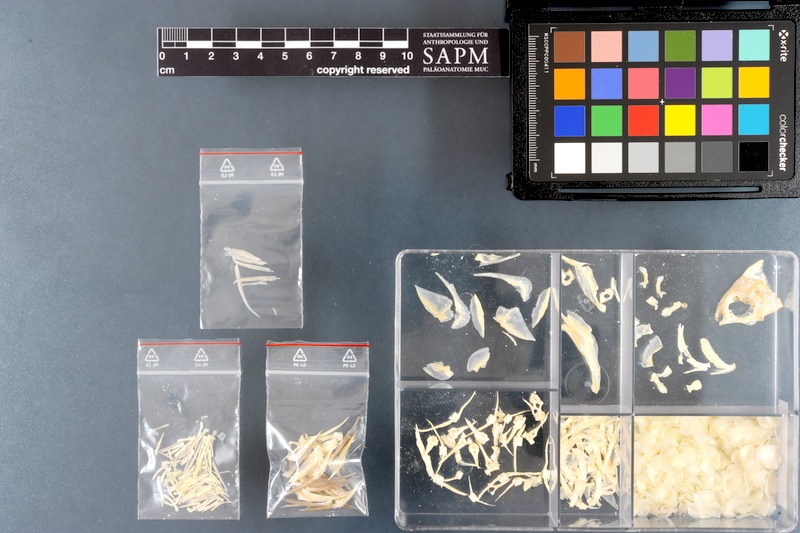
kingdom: Animalia
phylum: Chordata
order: Perciformes
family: Pomacentridae
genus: Dascyllus
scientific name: Dascyllus trimaculatus
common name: Threespot dascyllus
